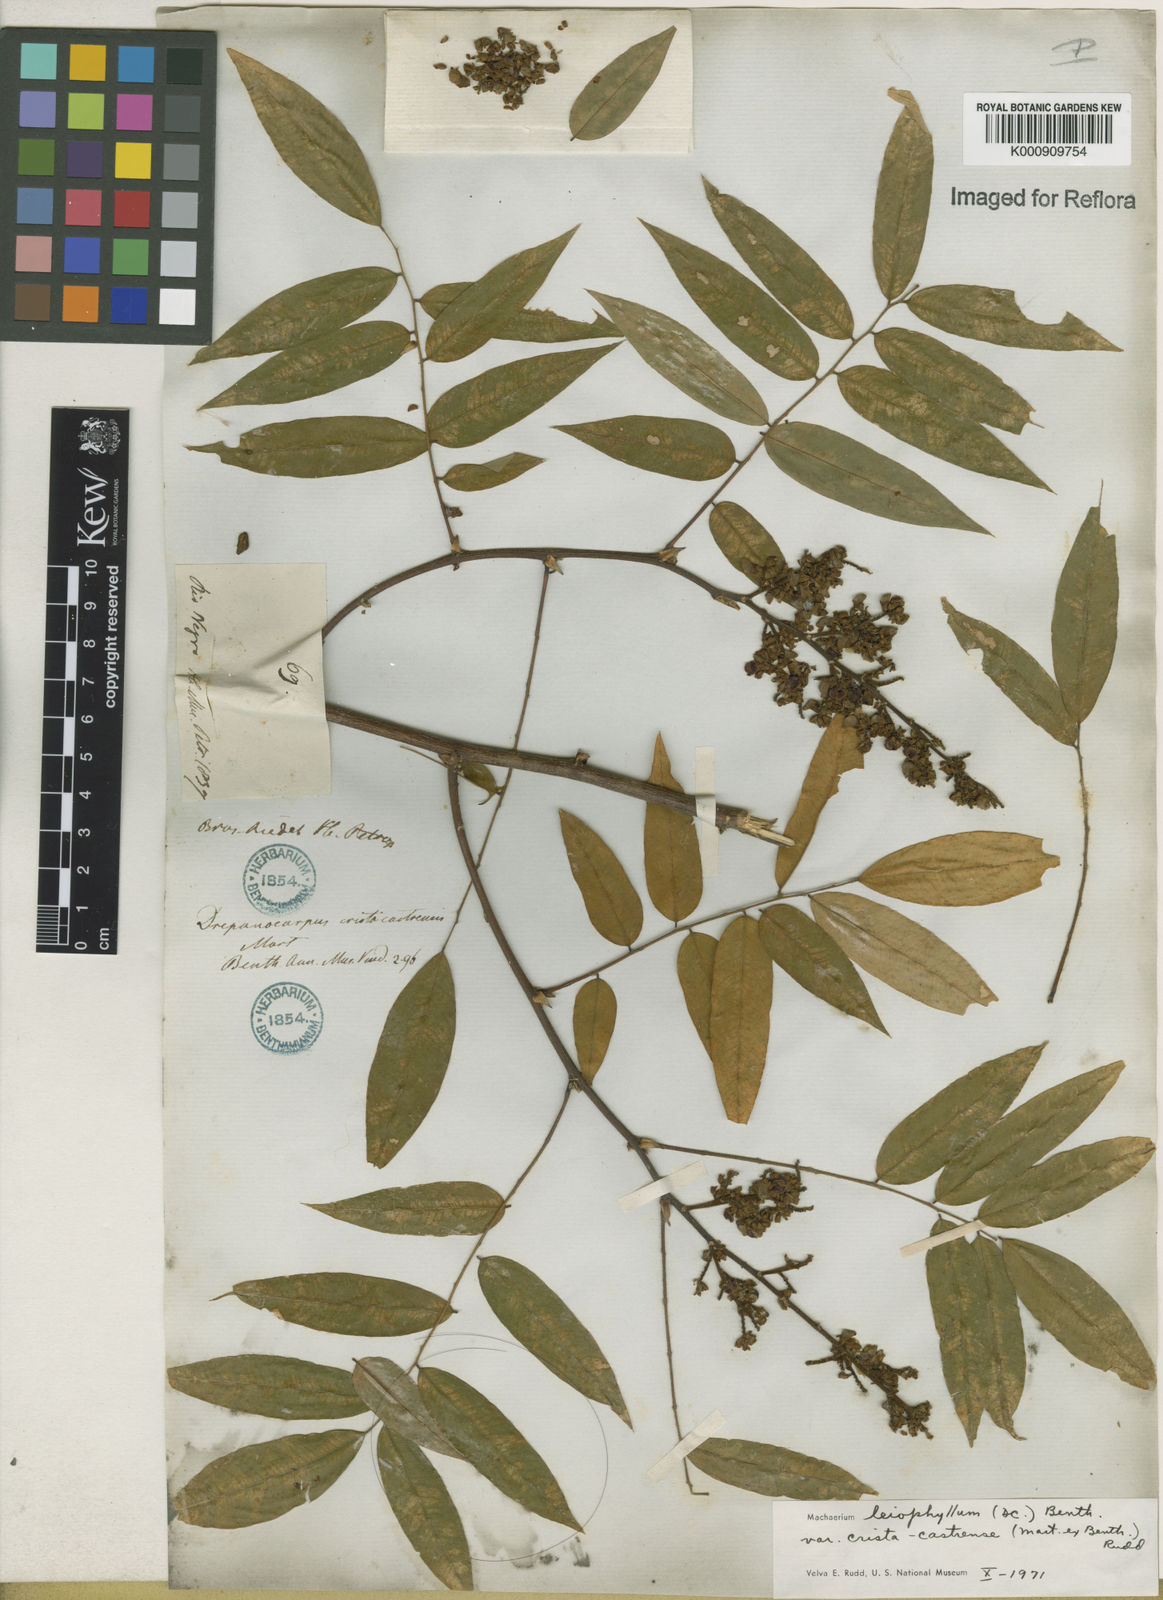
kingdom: Plantae
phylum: Tracheophyta
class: Magnoliopsida
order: Fabales
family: Fabaceae
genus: Machaerium
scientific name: Machaerium leiophyllum
